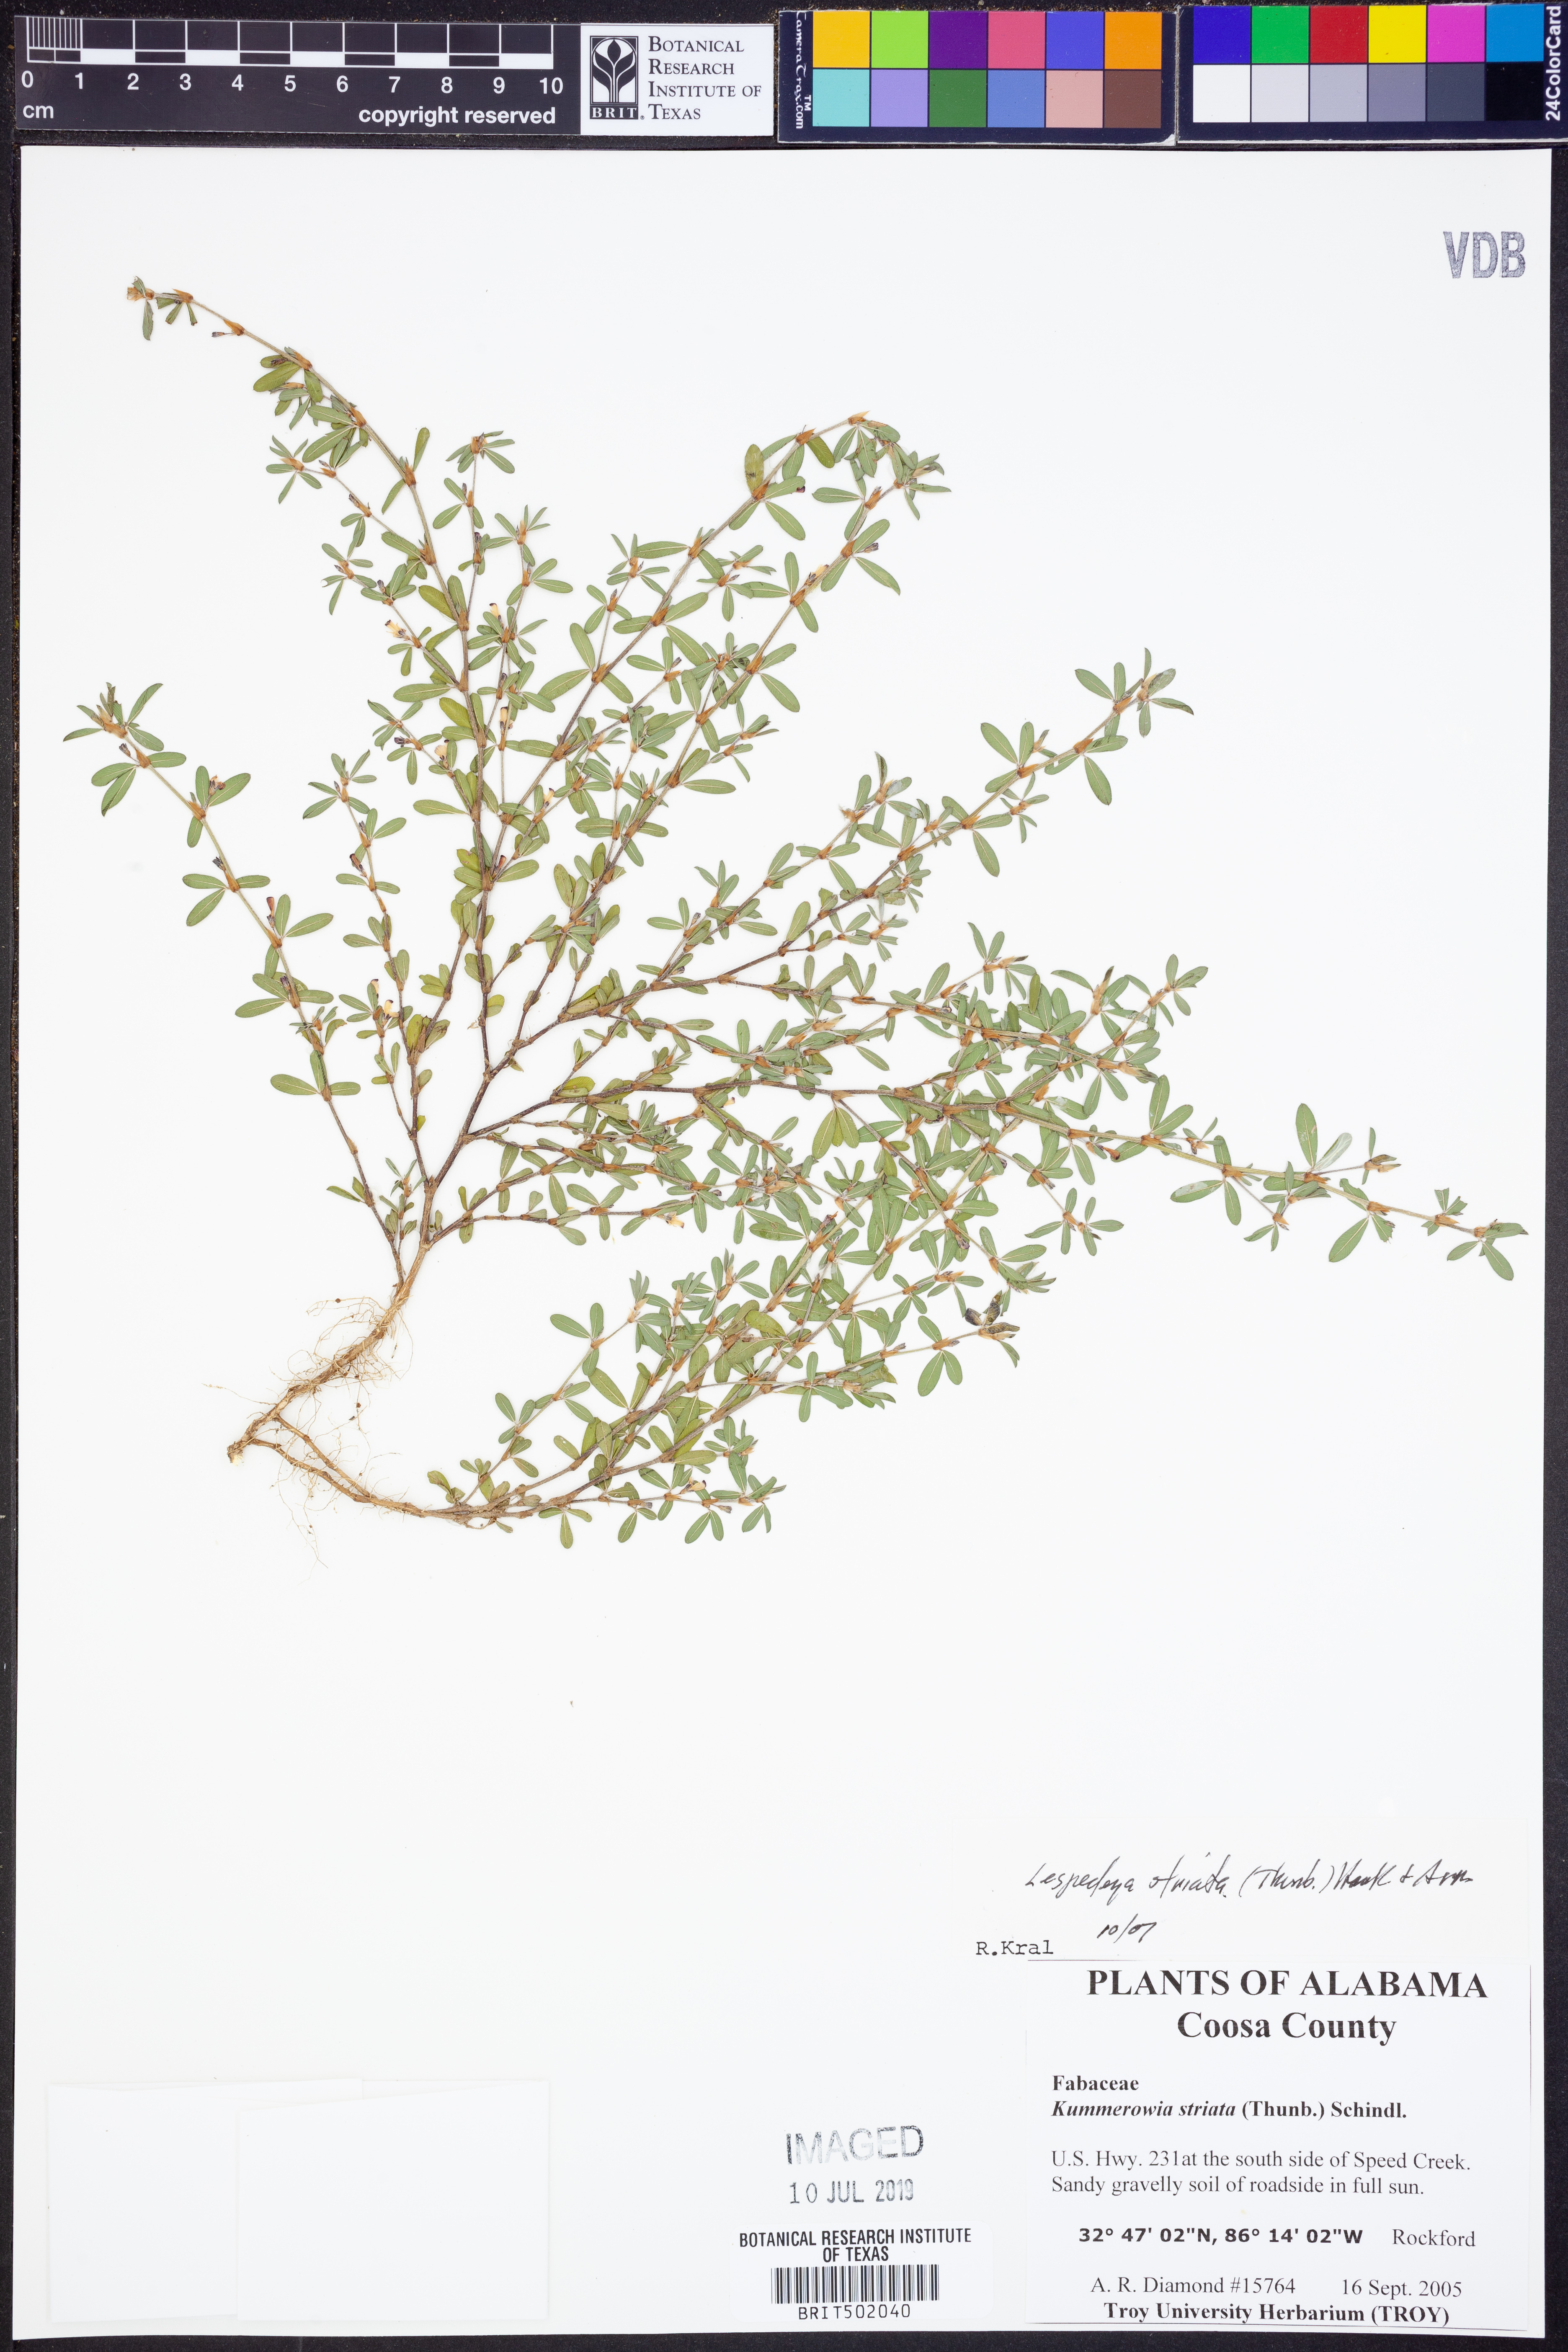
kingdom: Plantae
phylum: Tracheophyta
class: Magnoliopsida
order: Fabales
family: Fabaceae
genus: Kummerowia
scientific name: Kummerowia striata
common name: Japanese clover
